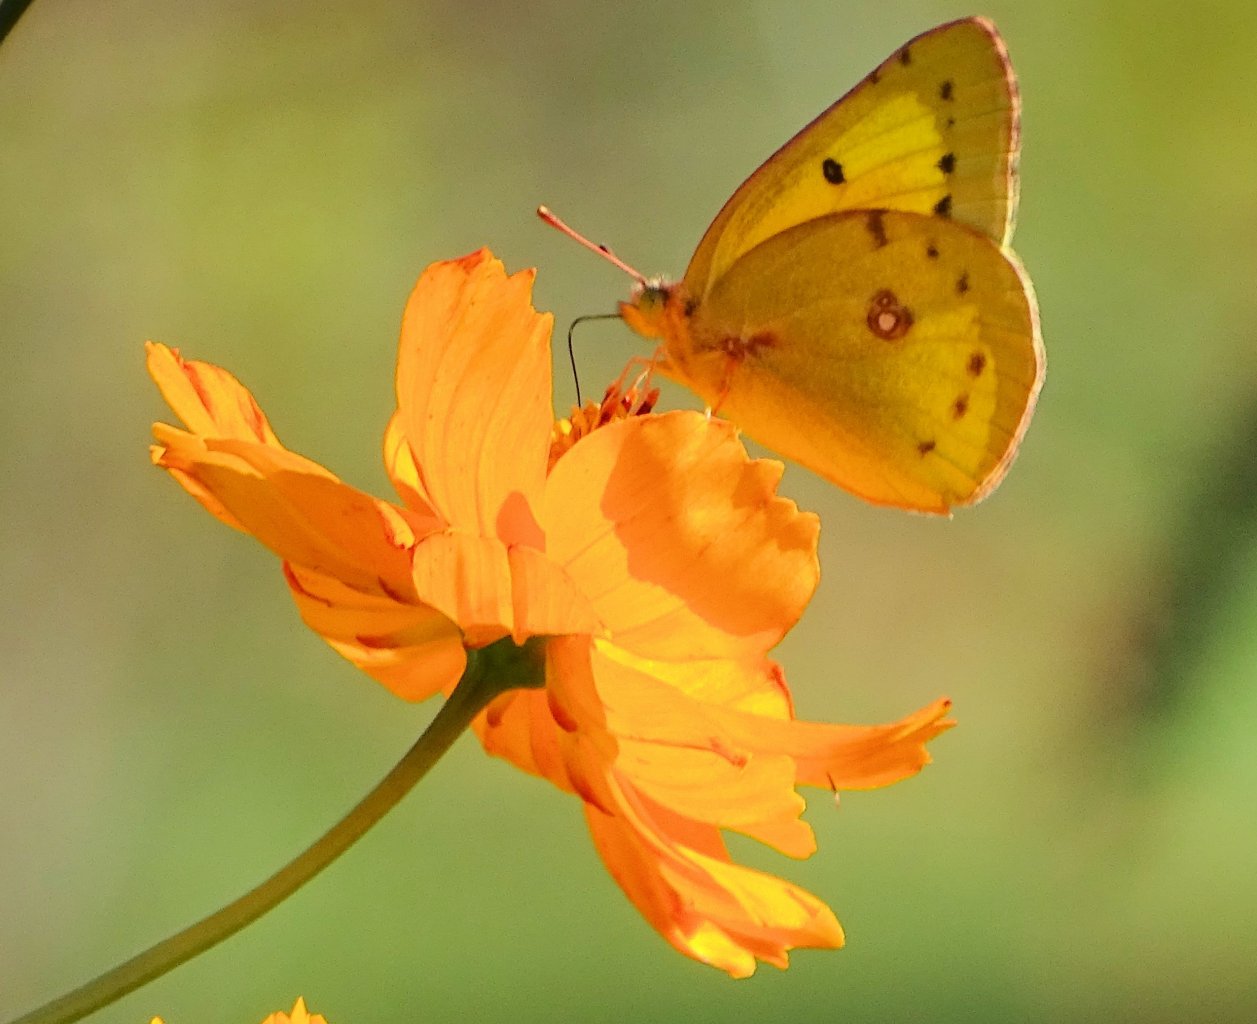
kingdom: Animalia
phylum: Arthropoda
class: Insecta
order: Lepidoptera
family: Pieridae
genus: Colias
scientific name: Colias
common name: Clouded Yellows
